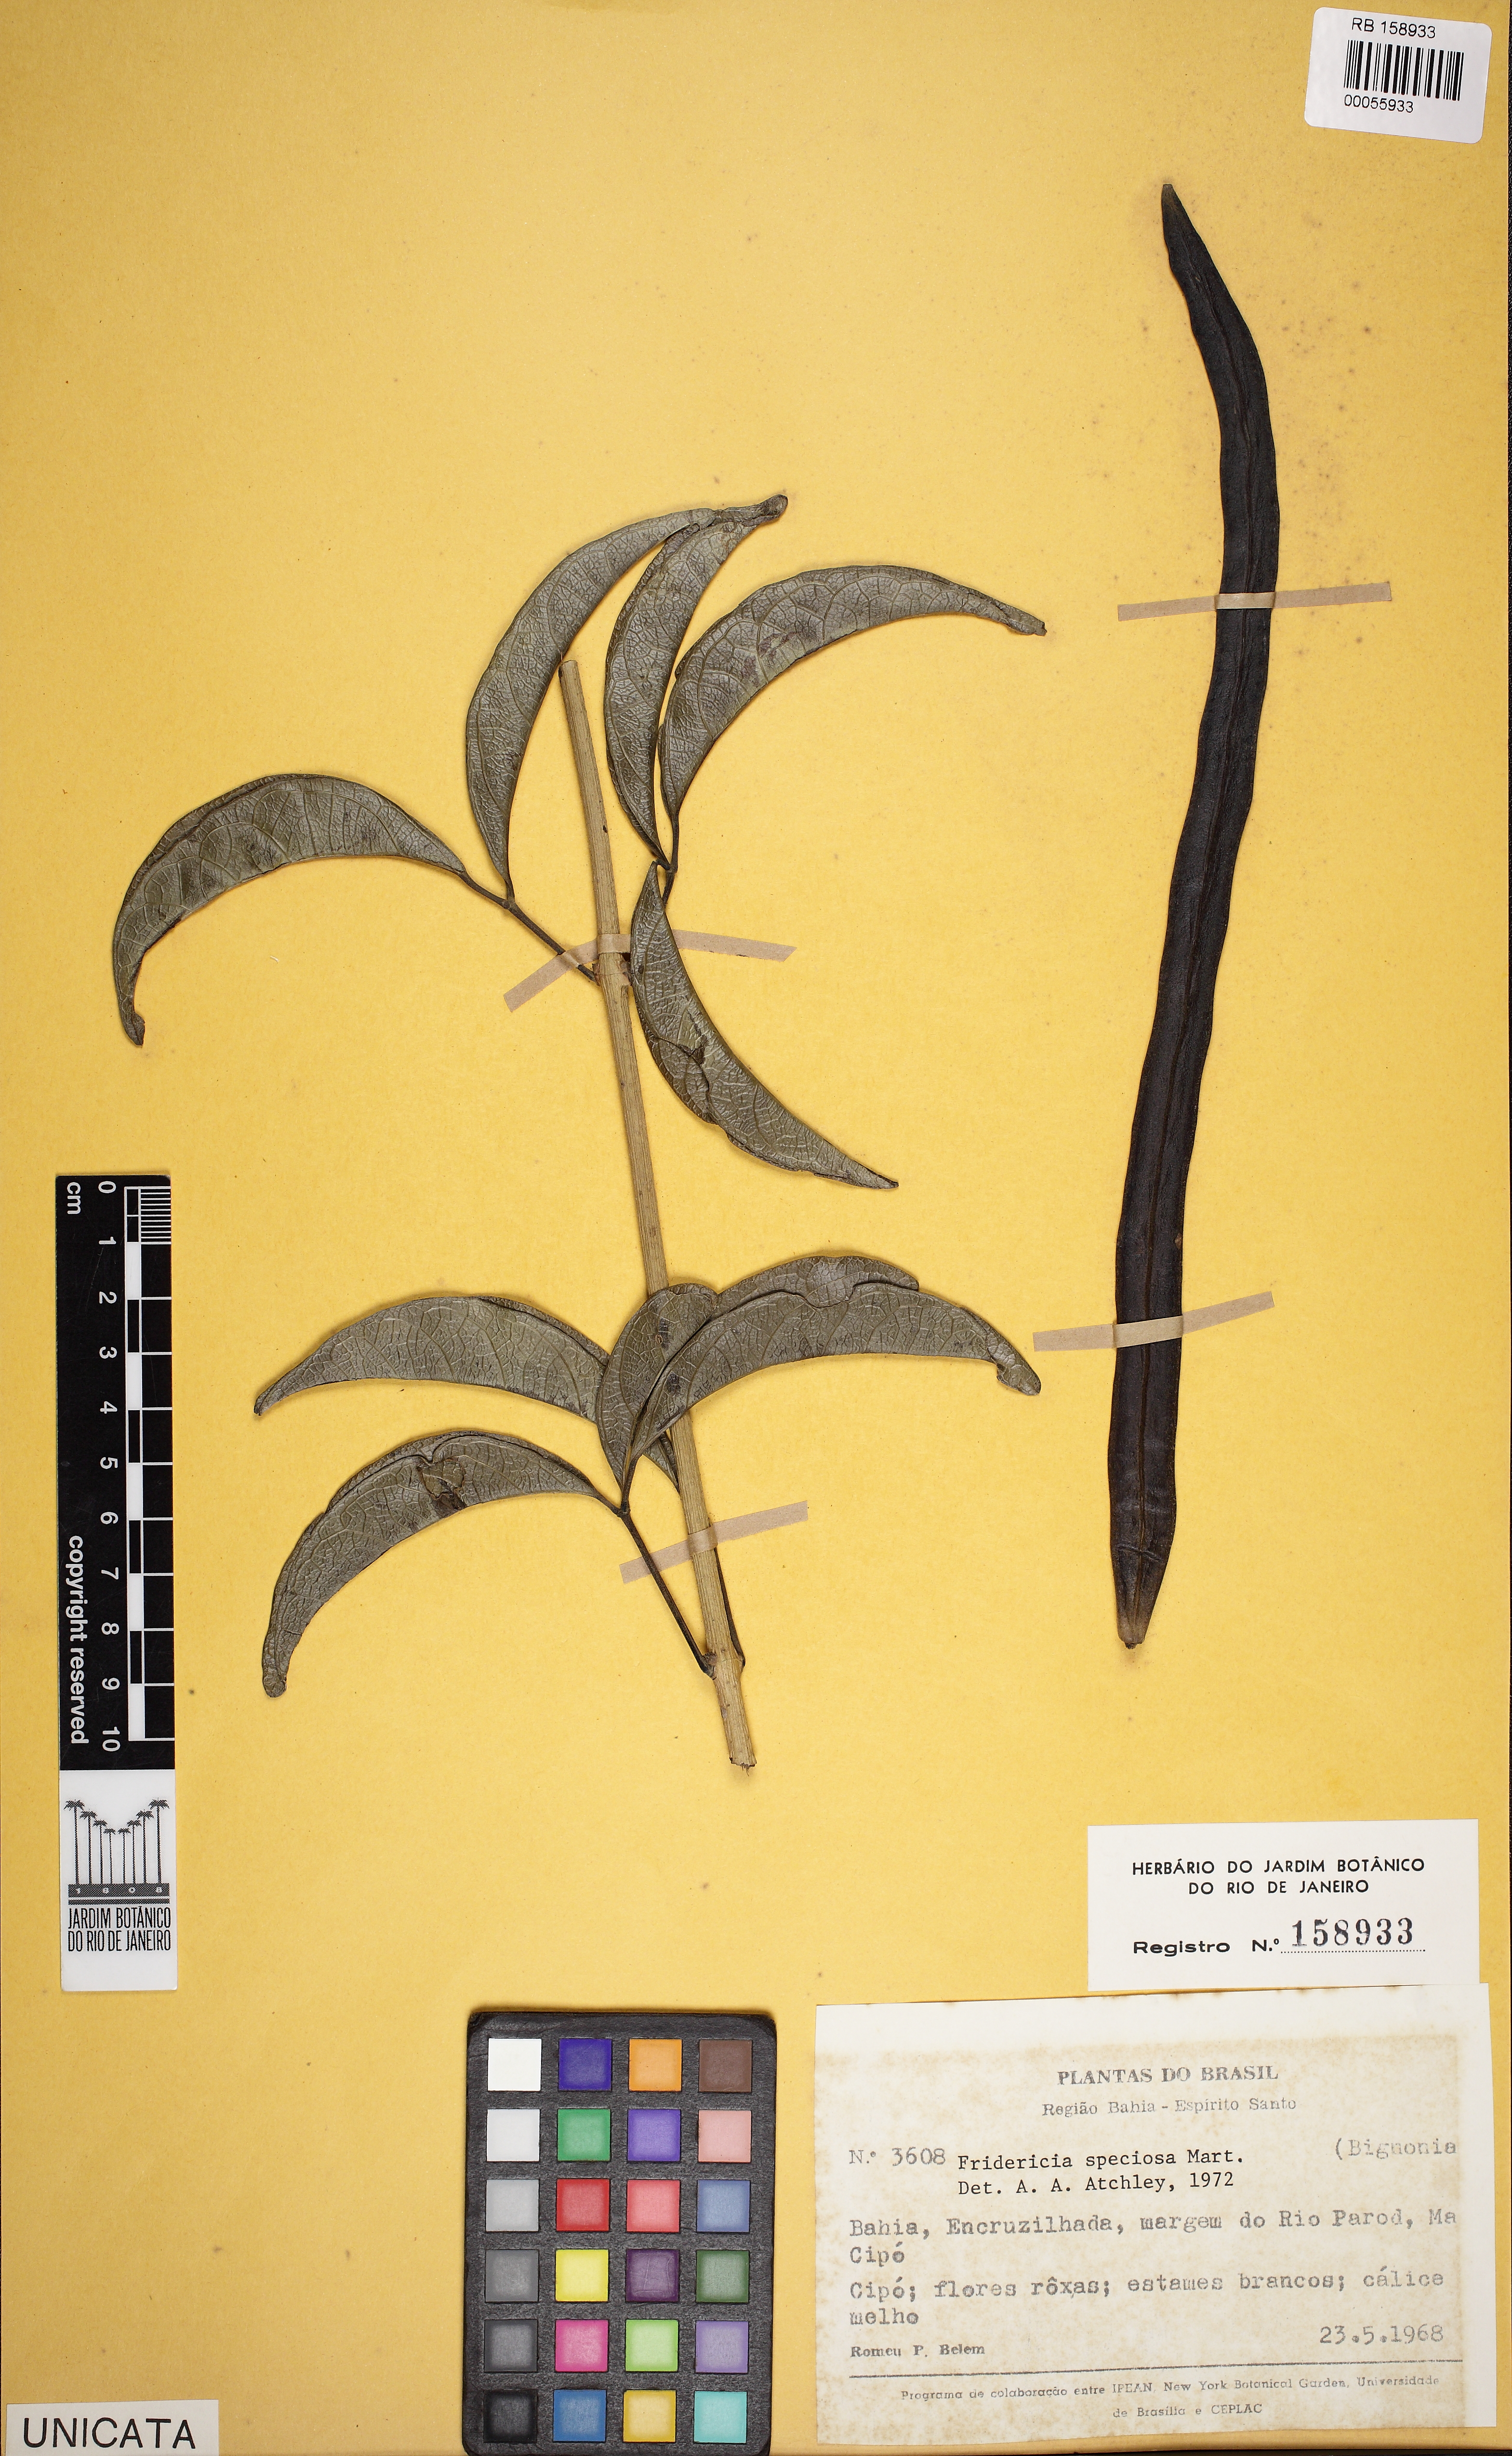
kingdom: Plantae
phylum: Tracheophyta
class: Magnoliopsida
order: Lamiales
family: Bignoniaceae
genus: Fridericia
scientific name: Fridericia speciosa
